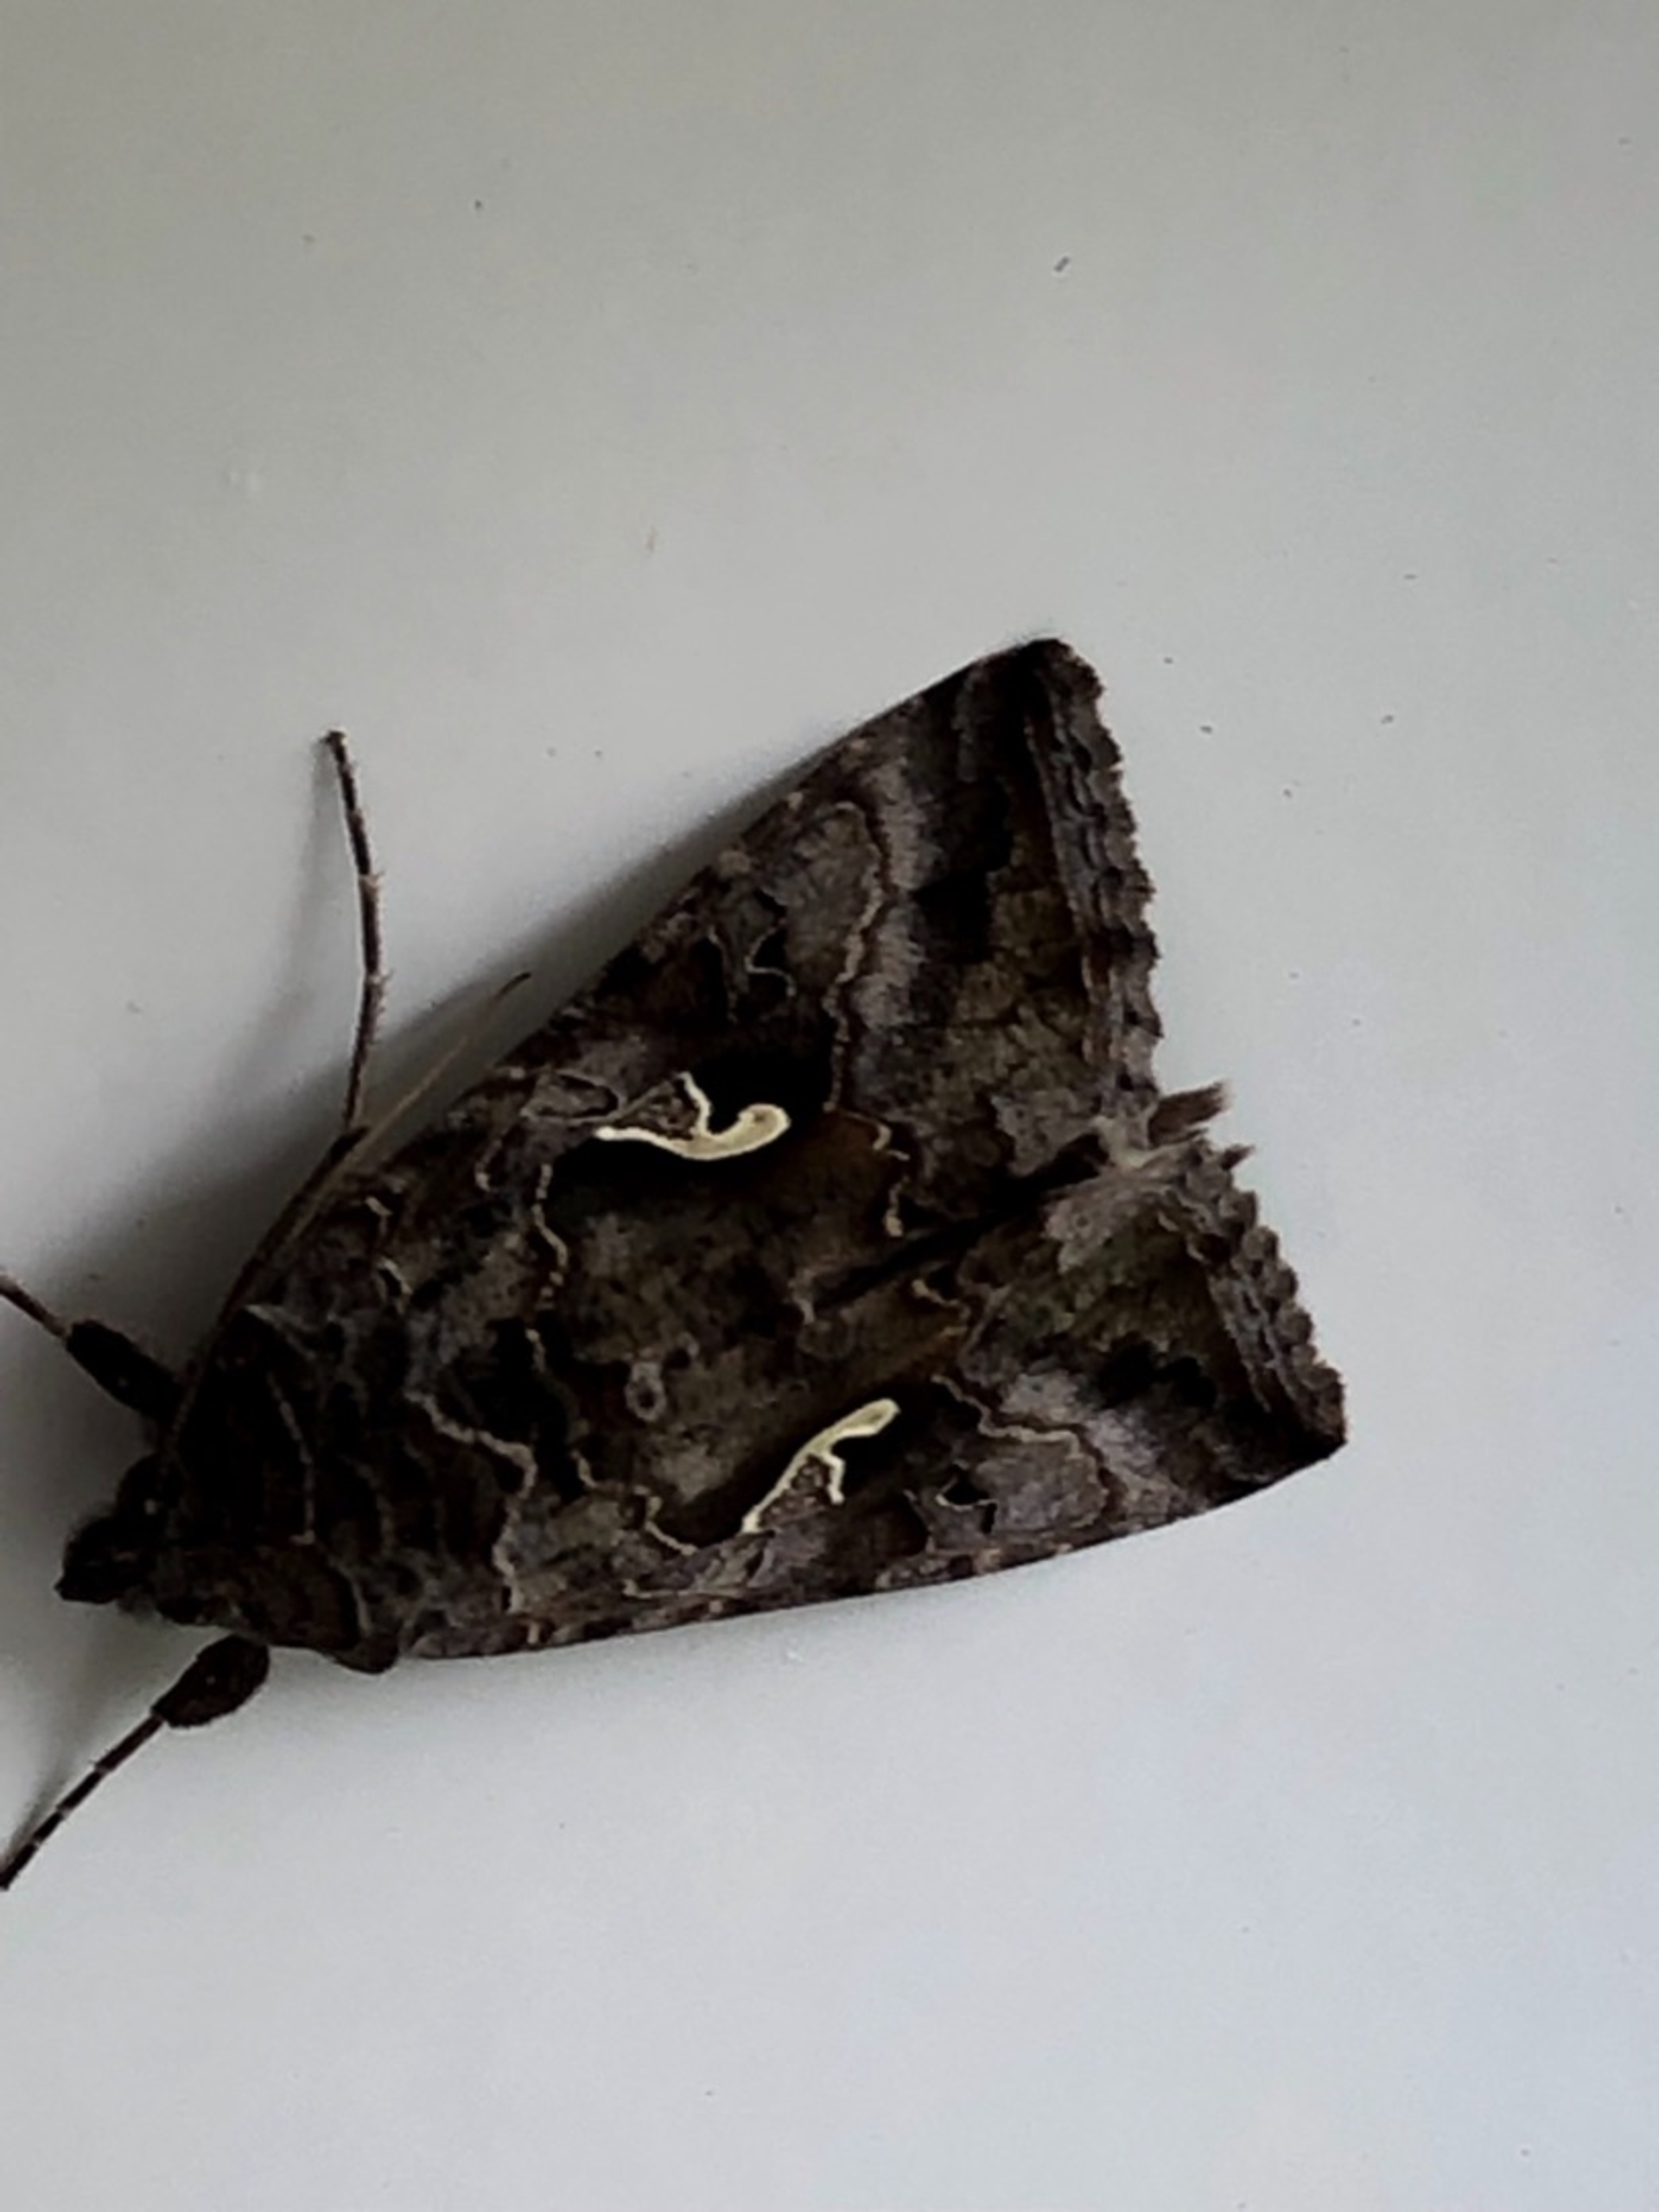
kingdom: Animalia
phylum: Arthropoda
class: Insecta
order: Lepidoptera
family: Noctuidae
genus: Autographa
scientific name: Autographa gamma
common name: Gammaugle
